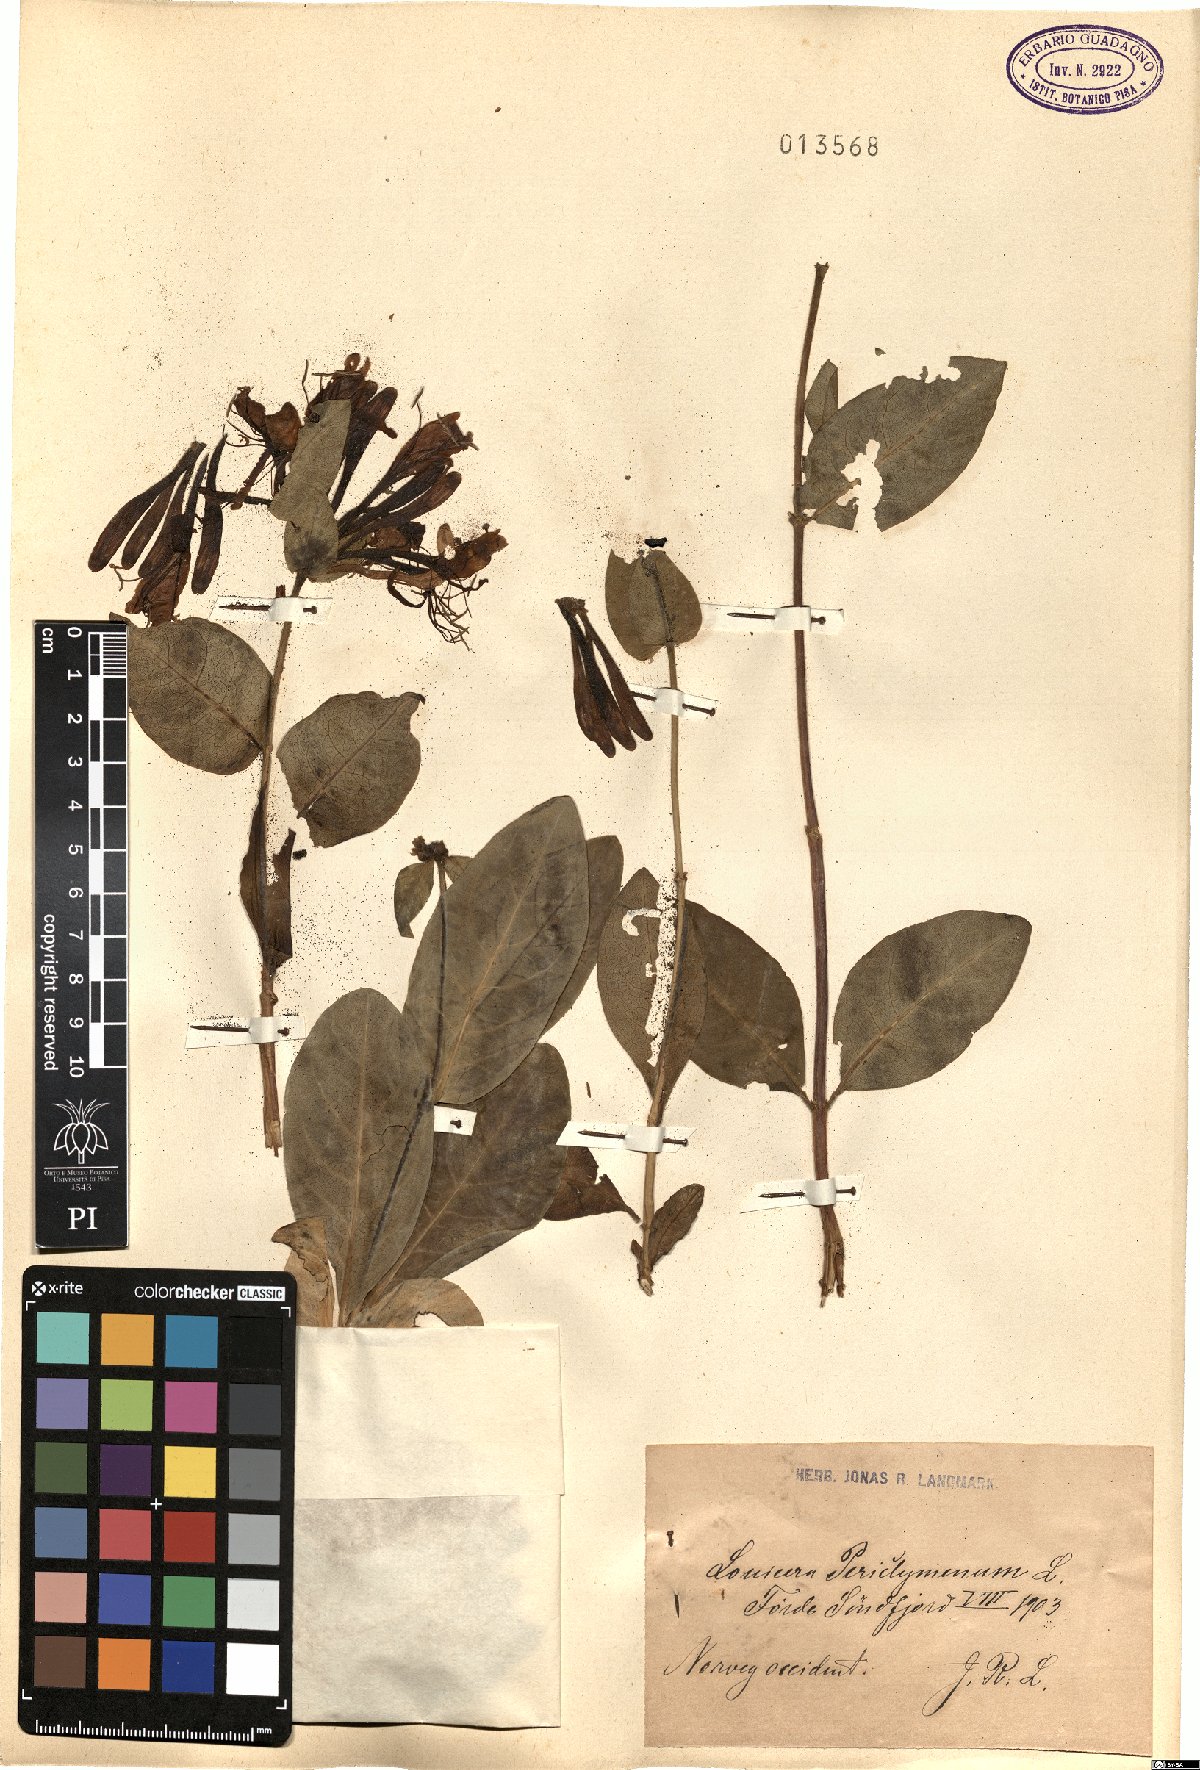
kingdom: Plantae
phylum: Tracheophyta
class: Magnoliopsida
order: Dipsacales
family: Caprifoliaceae
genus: Lonicera
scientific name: Lonicera periclymenum
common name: European honeysuckle
